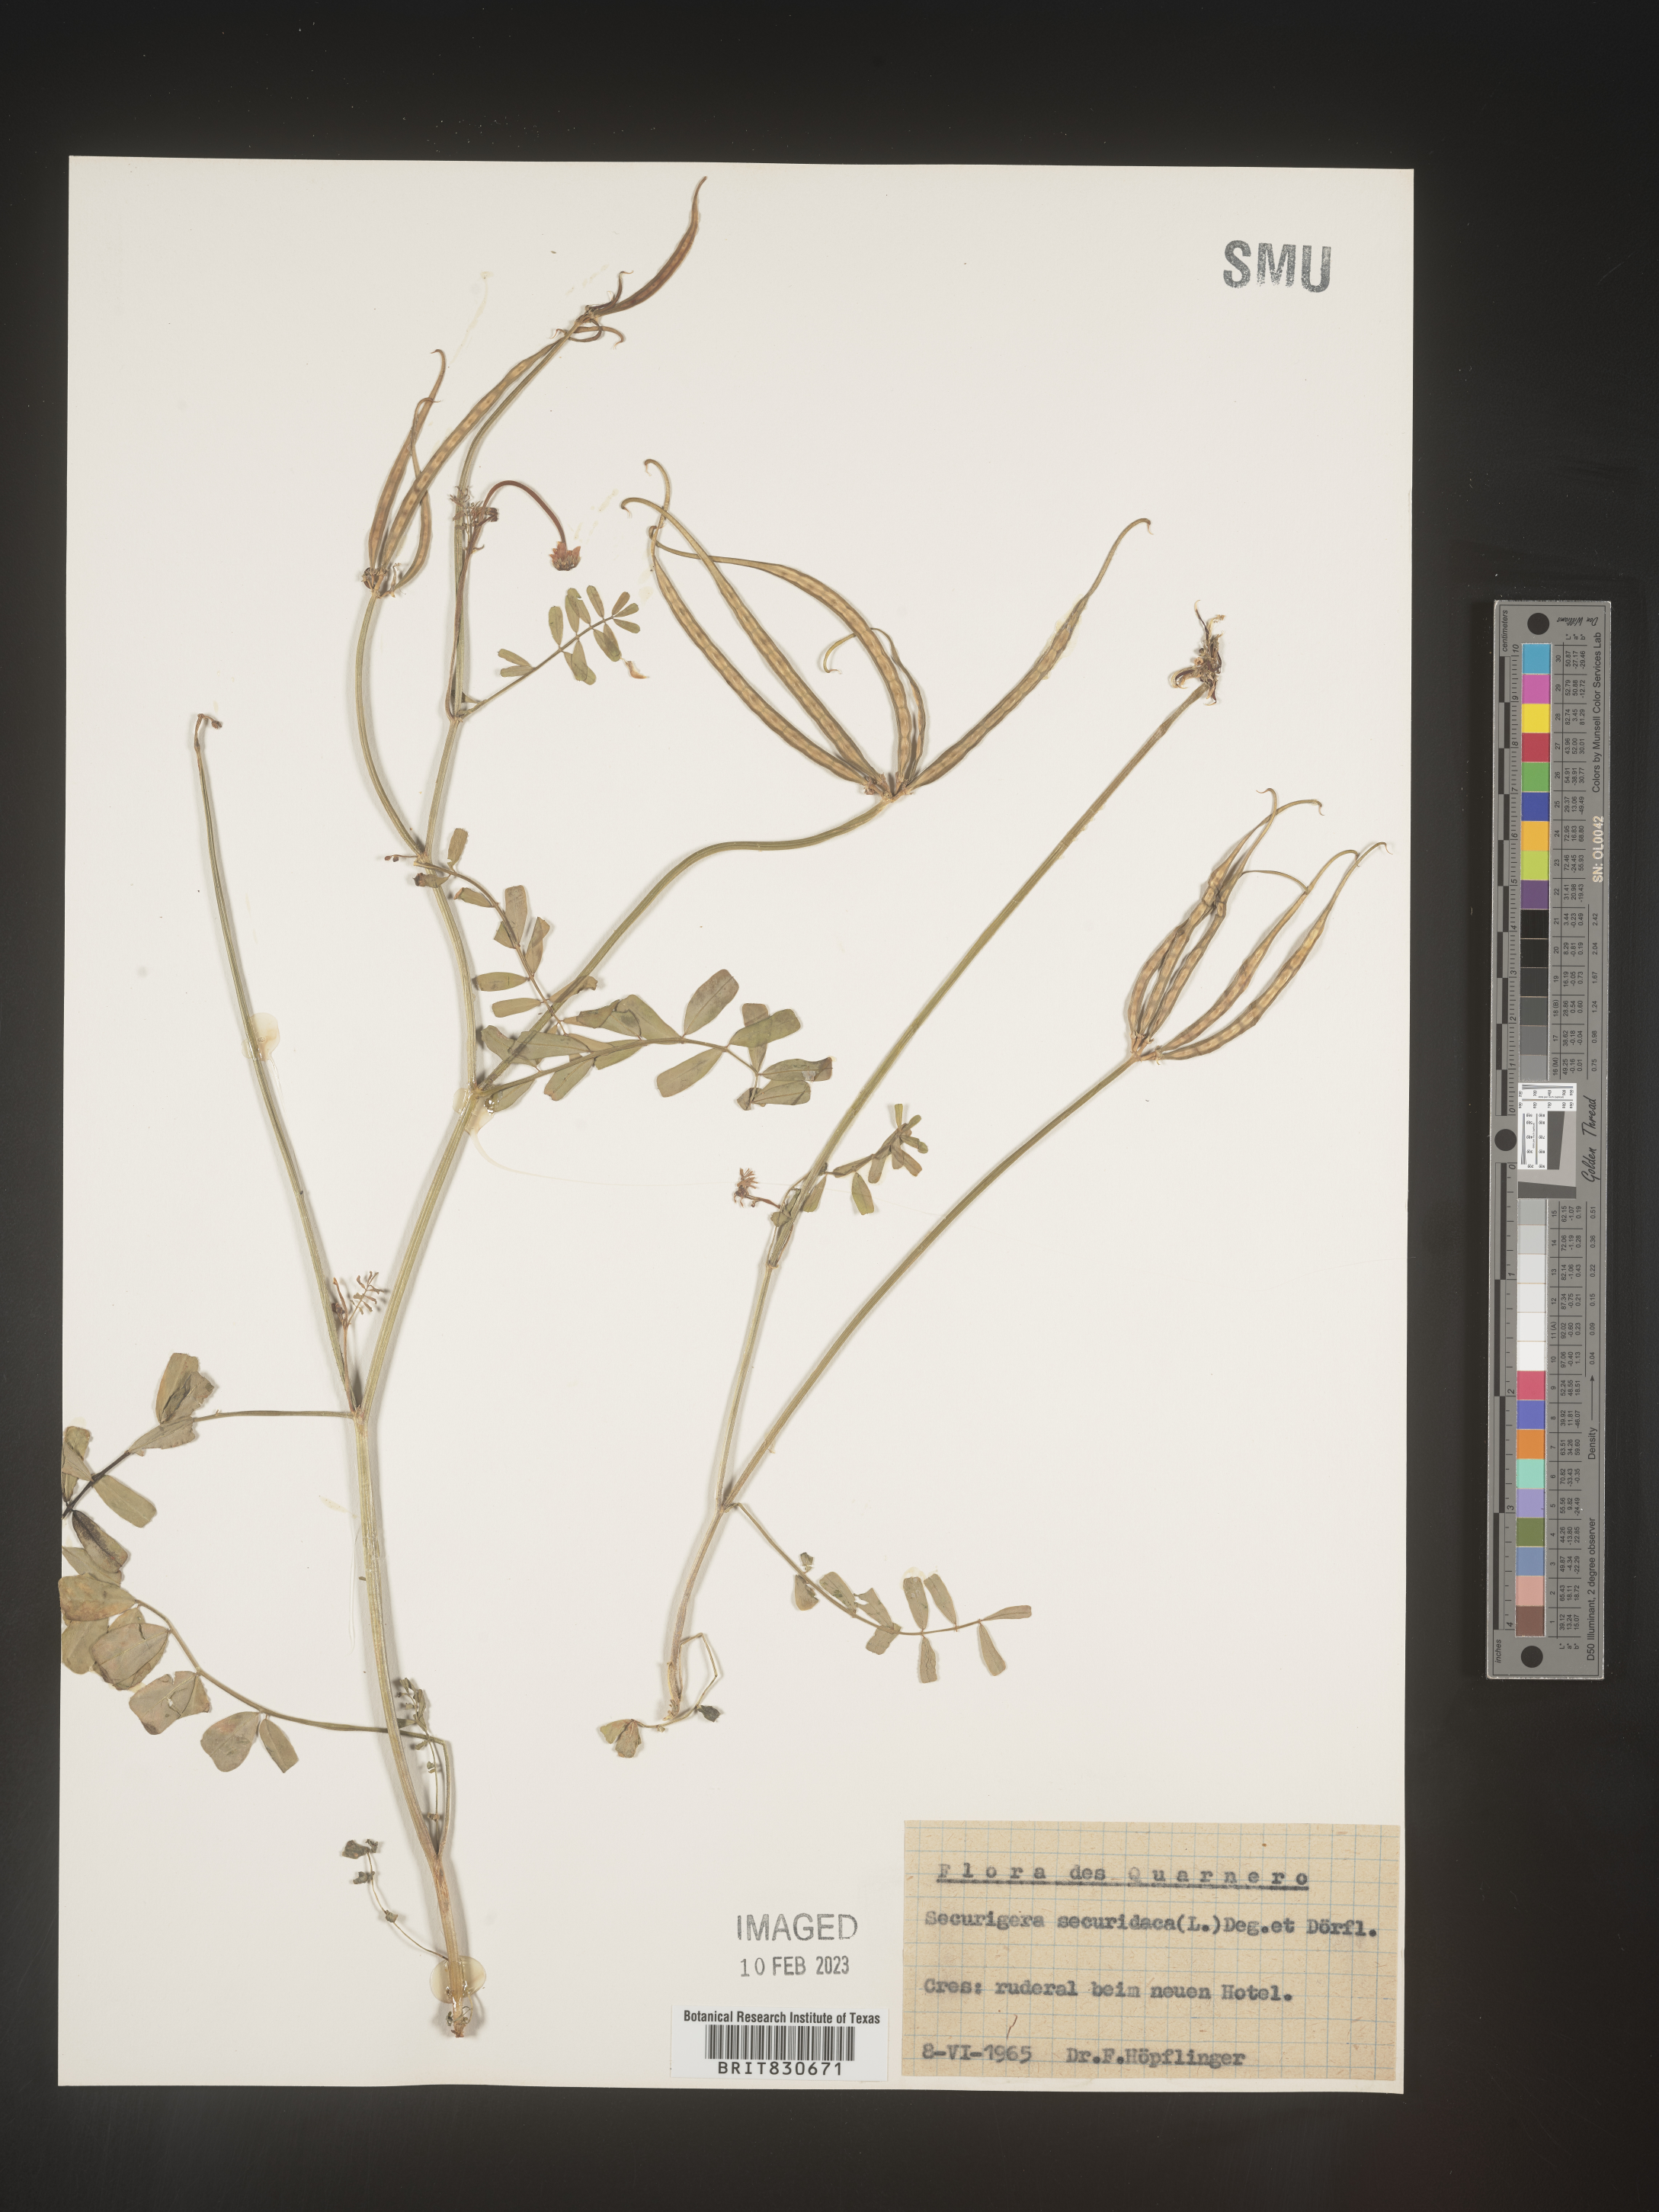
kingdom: Animalia
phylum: Arthropoda
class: Insecta
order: Orthoptera
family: Romaleidae
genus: Securigera
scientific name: Securigera
